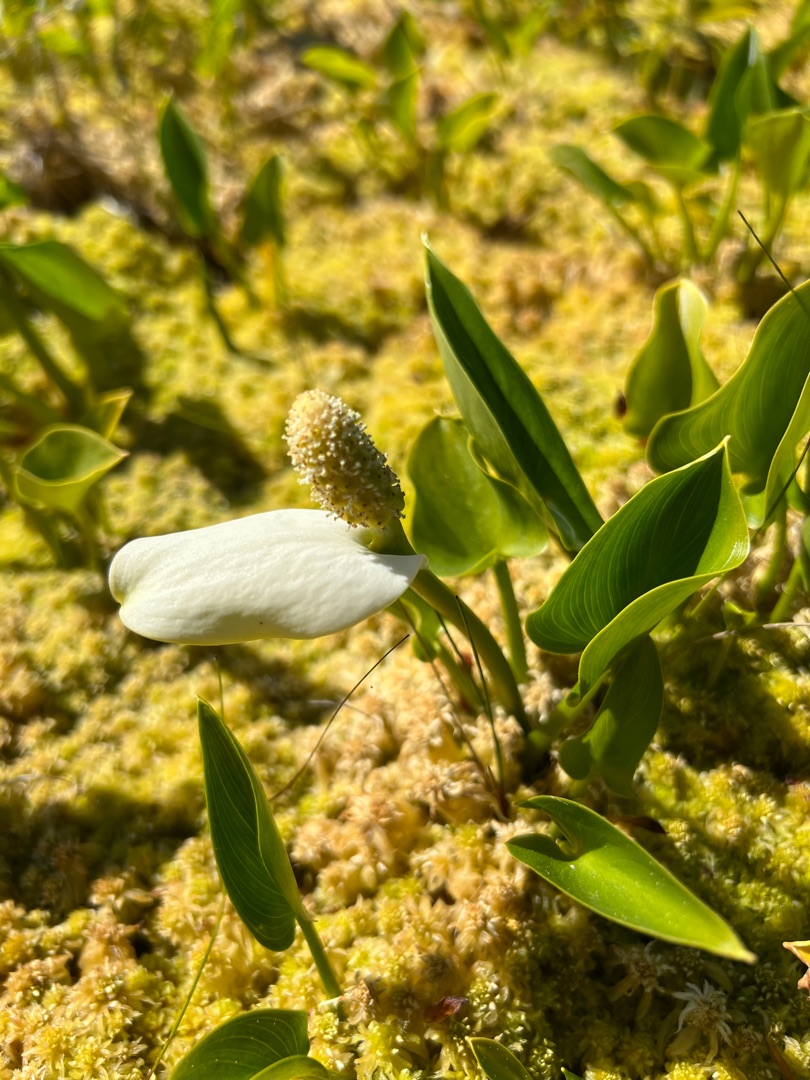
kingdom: Plantae
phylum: Tracheophyta
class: Liliopsida
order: Alismatales
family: Araceae
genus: Calla
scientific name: Calla palustris
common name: Kærmysse
